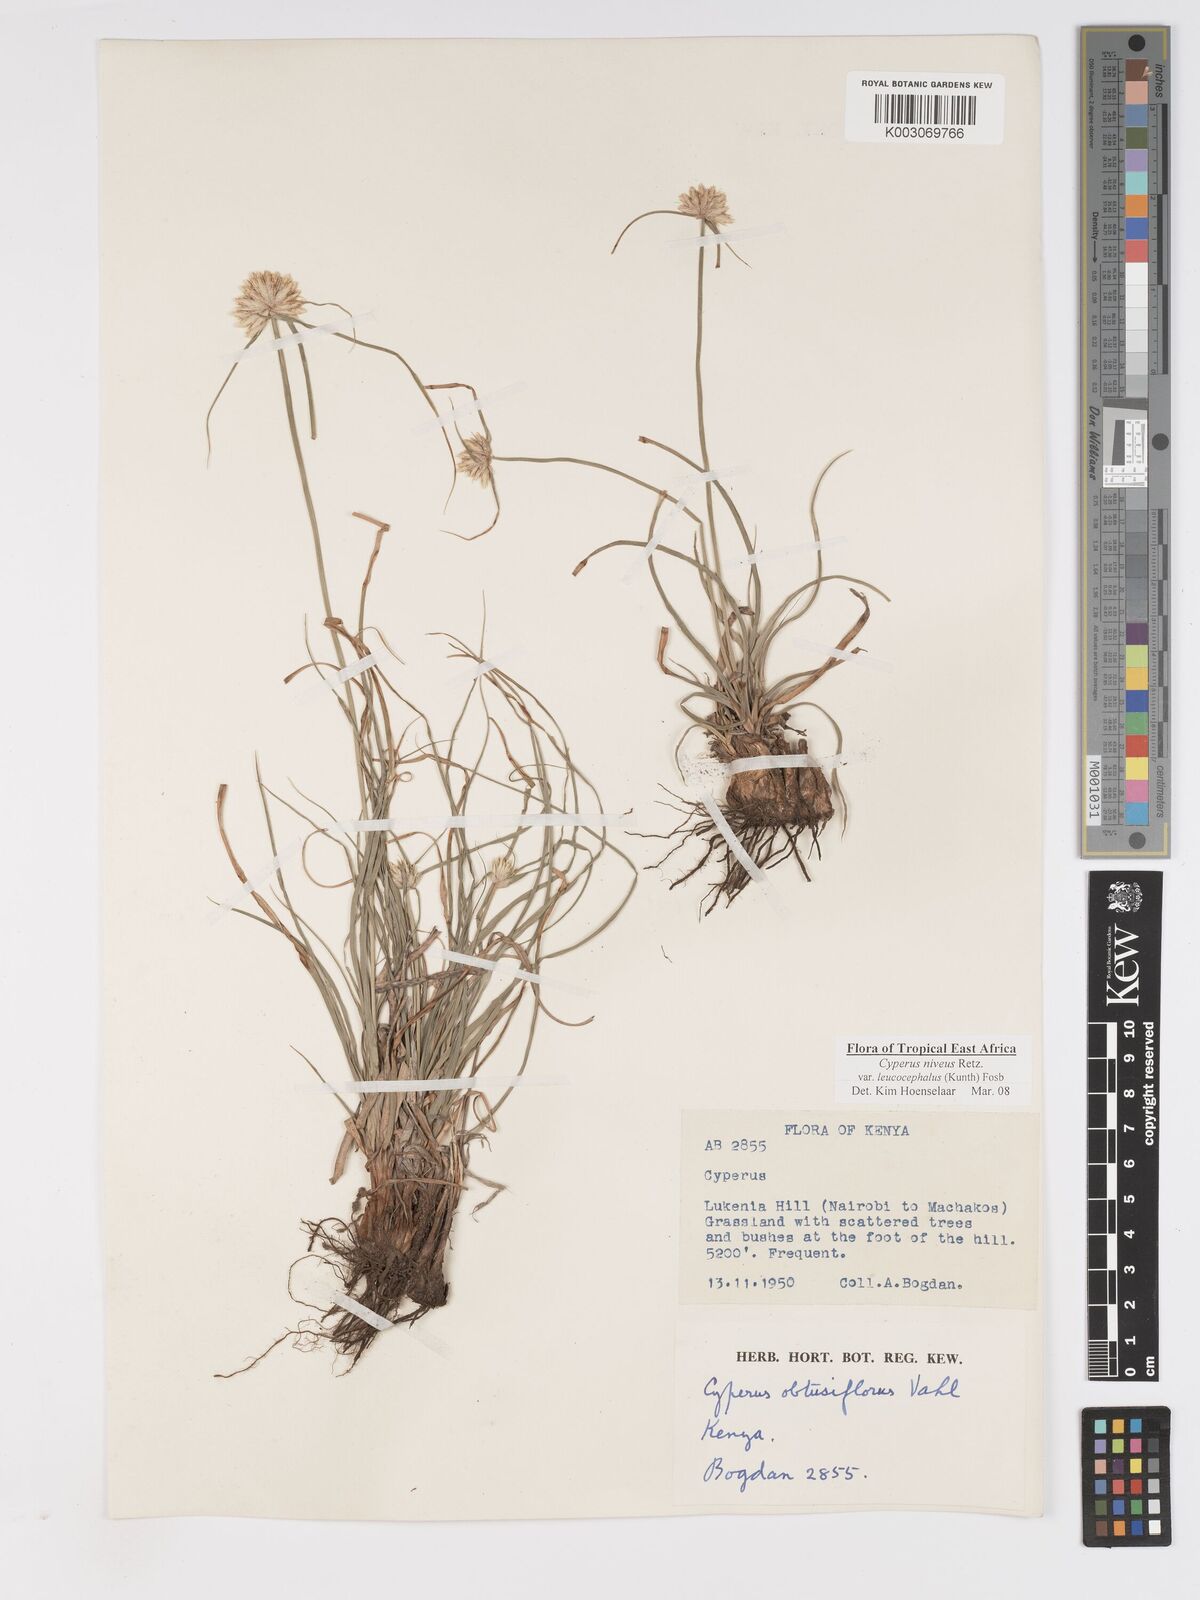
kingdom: Plantae
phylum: Tracheophyta
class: Liliopsida
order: Poales
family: Cyperaceae
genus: Cyperus
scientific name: Cyperus niveus
